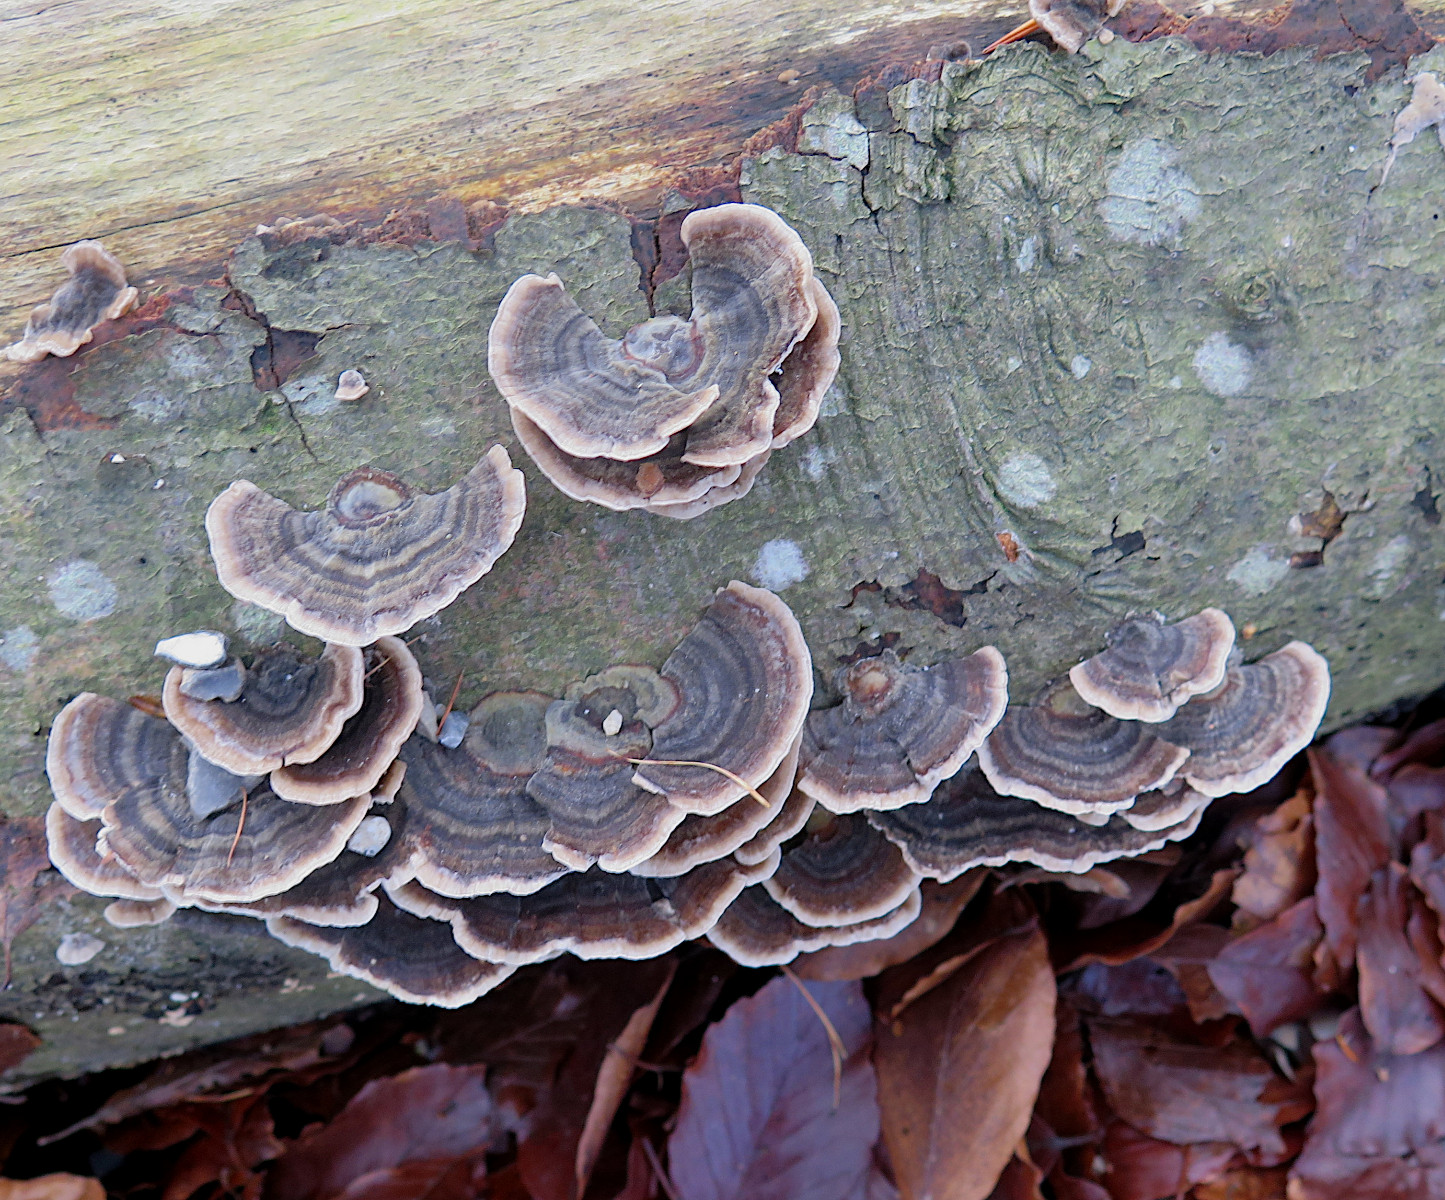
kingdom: Fungi
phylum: Basidiomycota
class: Agaricomycetes
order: Polyporales
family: Polyporaceae
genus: Trametes
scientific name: Trametes versicolor
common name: broget læderporesvamp
